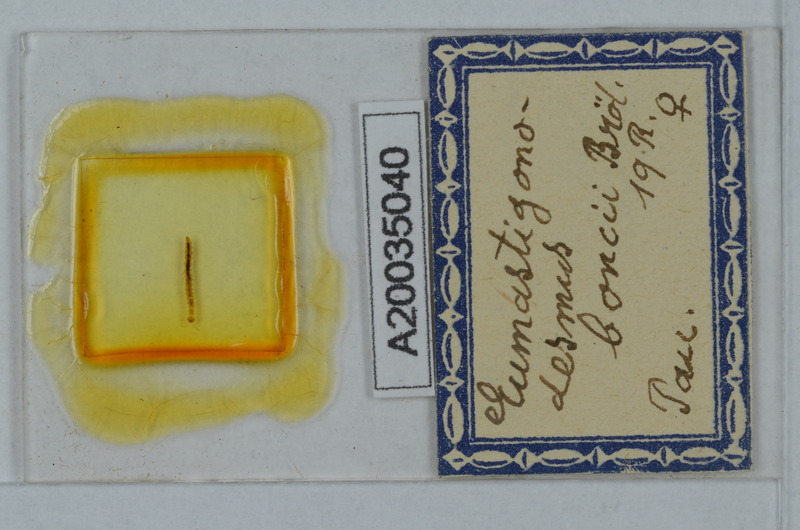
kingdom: Animalia
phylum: Arthropoda
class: Diplopoda
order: Polydesmida
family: Polydesmidae
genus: Eumastigonodesmus
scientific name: Eumastigonodesmus boncii
